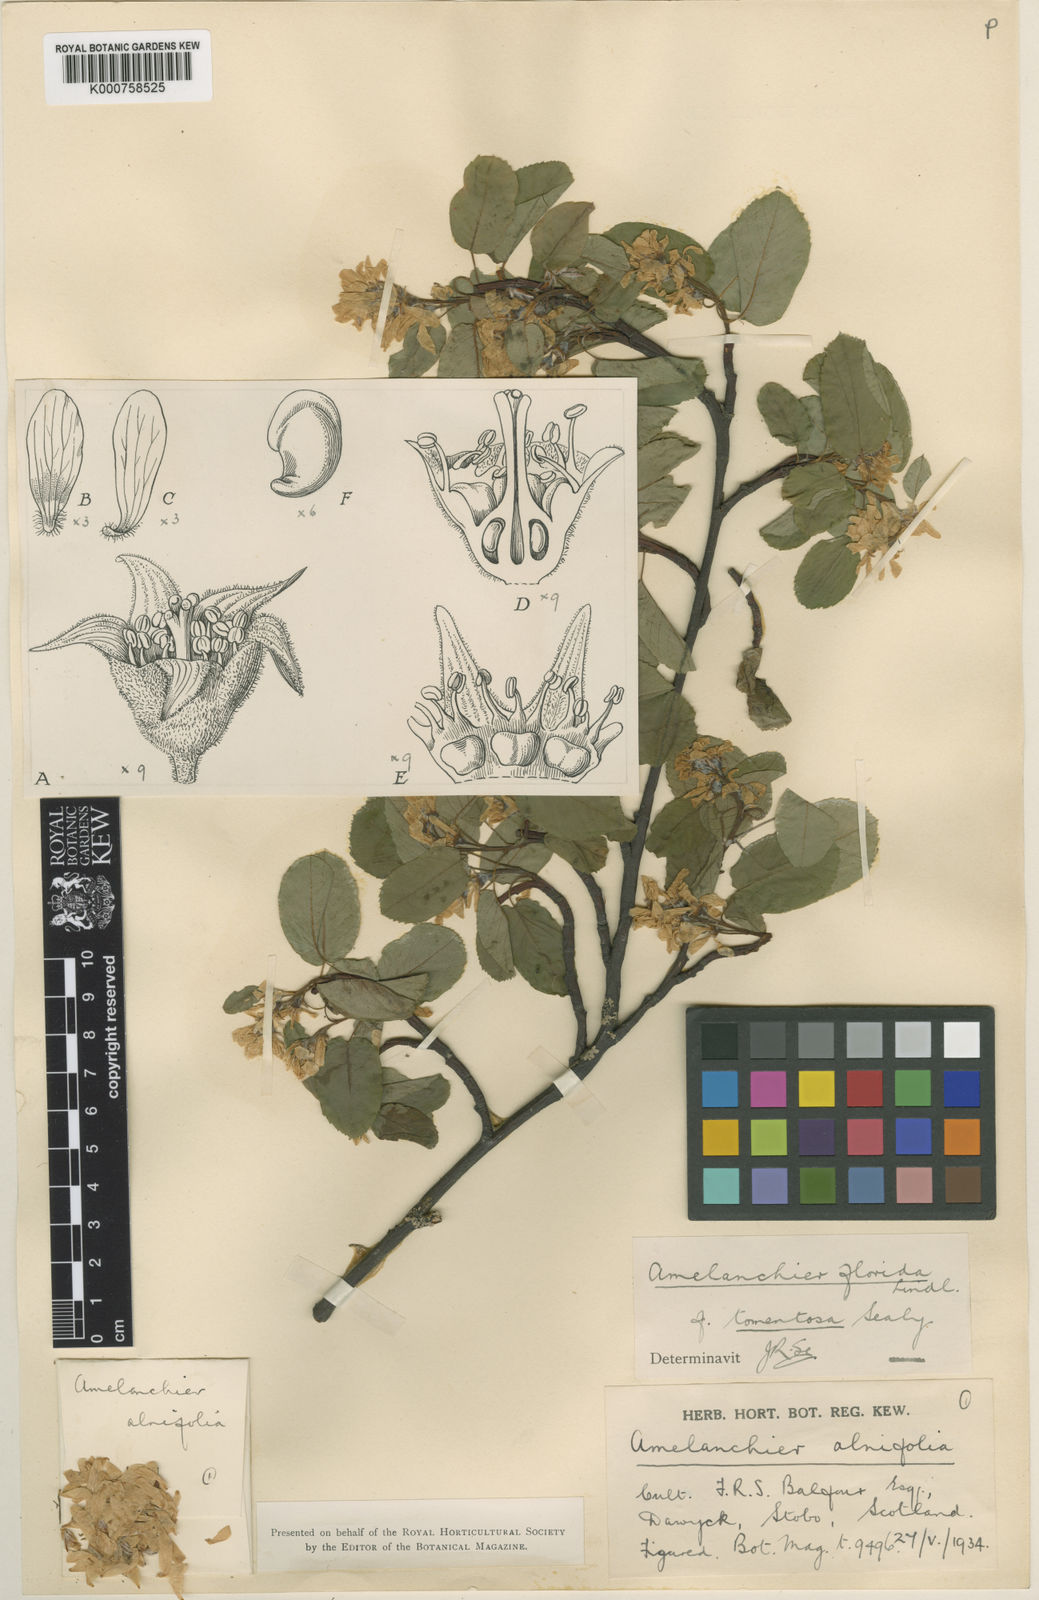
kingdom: Plantae
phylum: Tracheophyta
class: Magnoliopsida
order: Rosales
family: Rosaceae
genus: Amelanchier
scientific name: Amelanchier alnifolia
